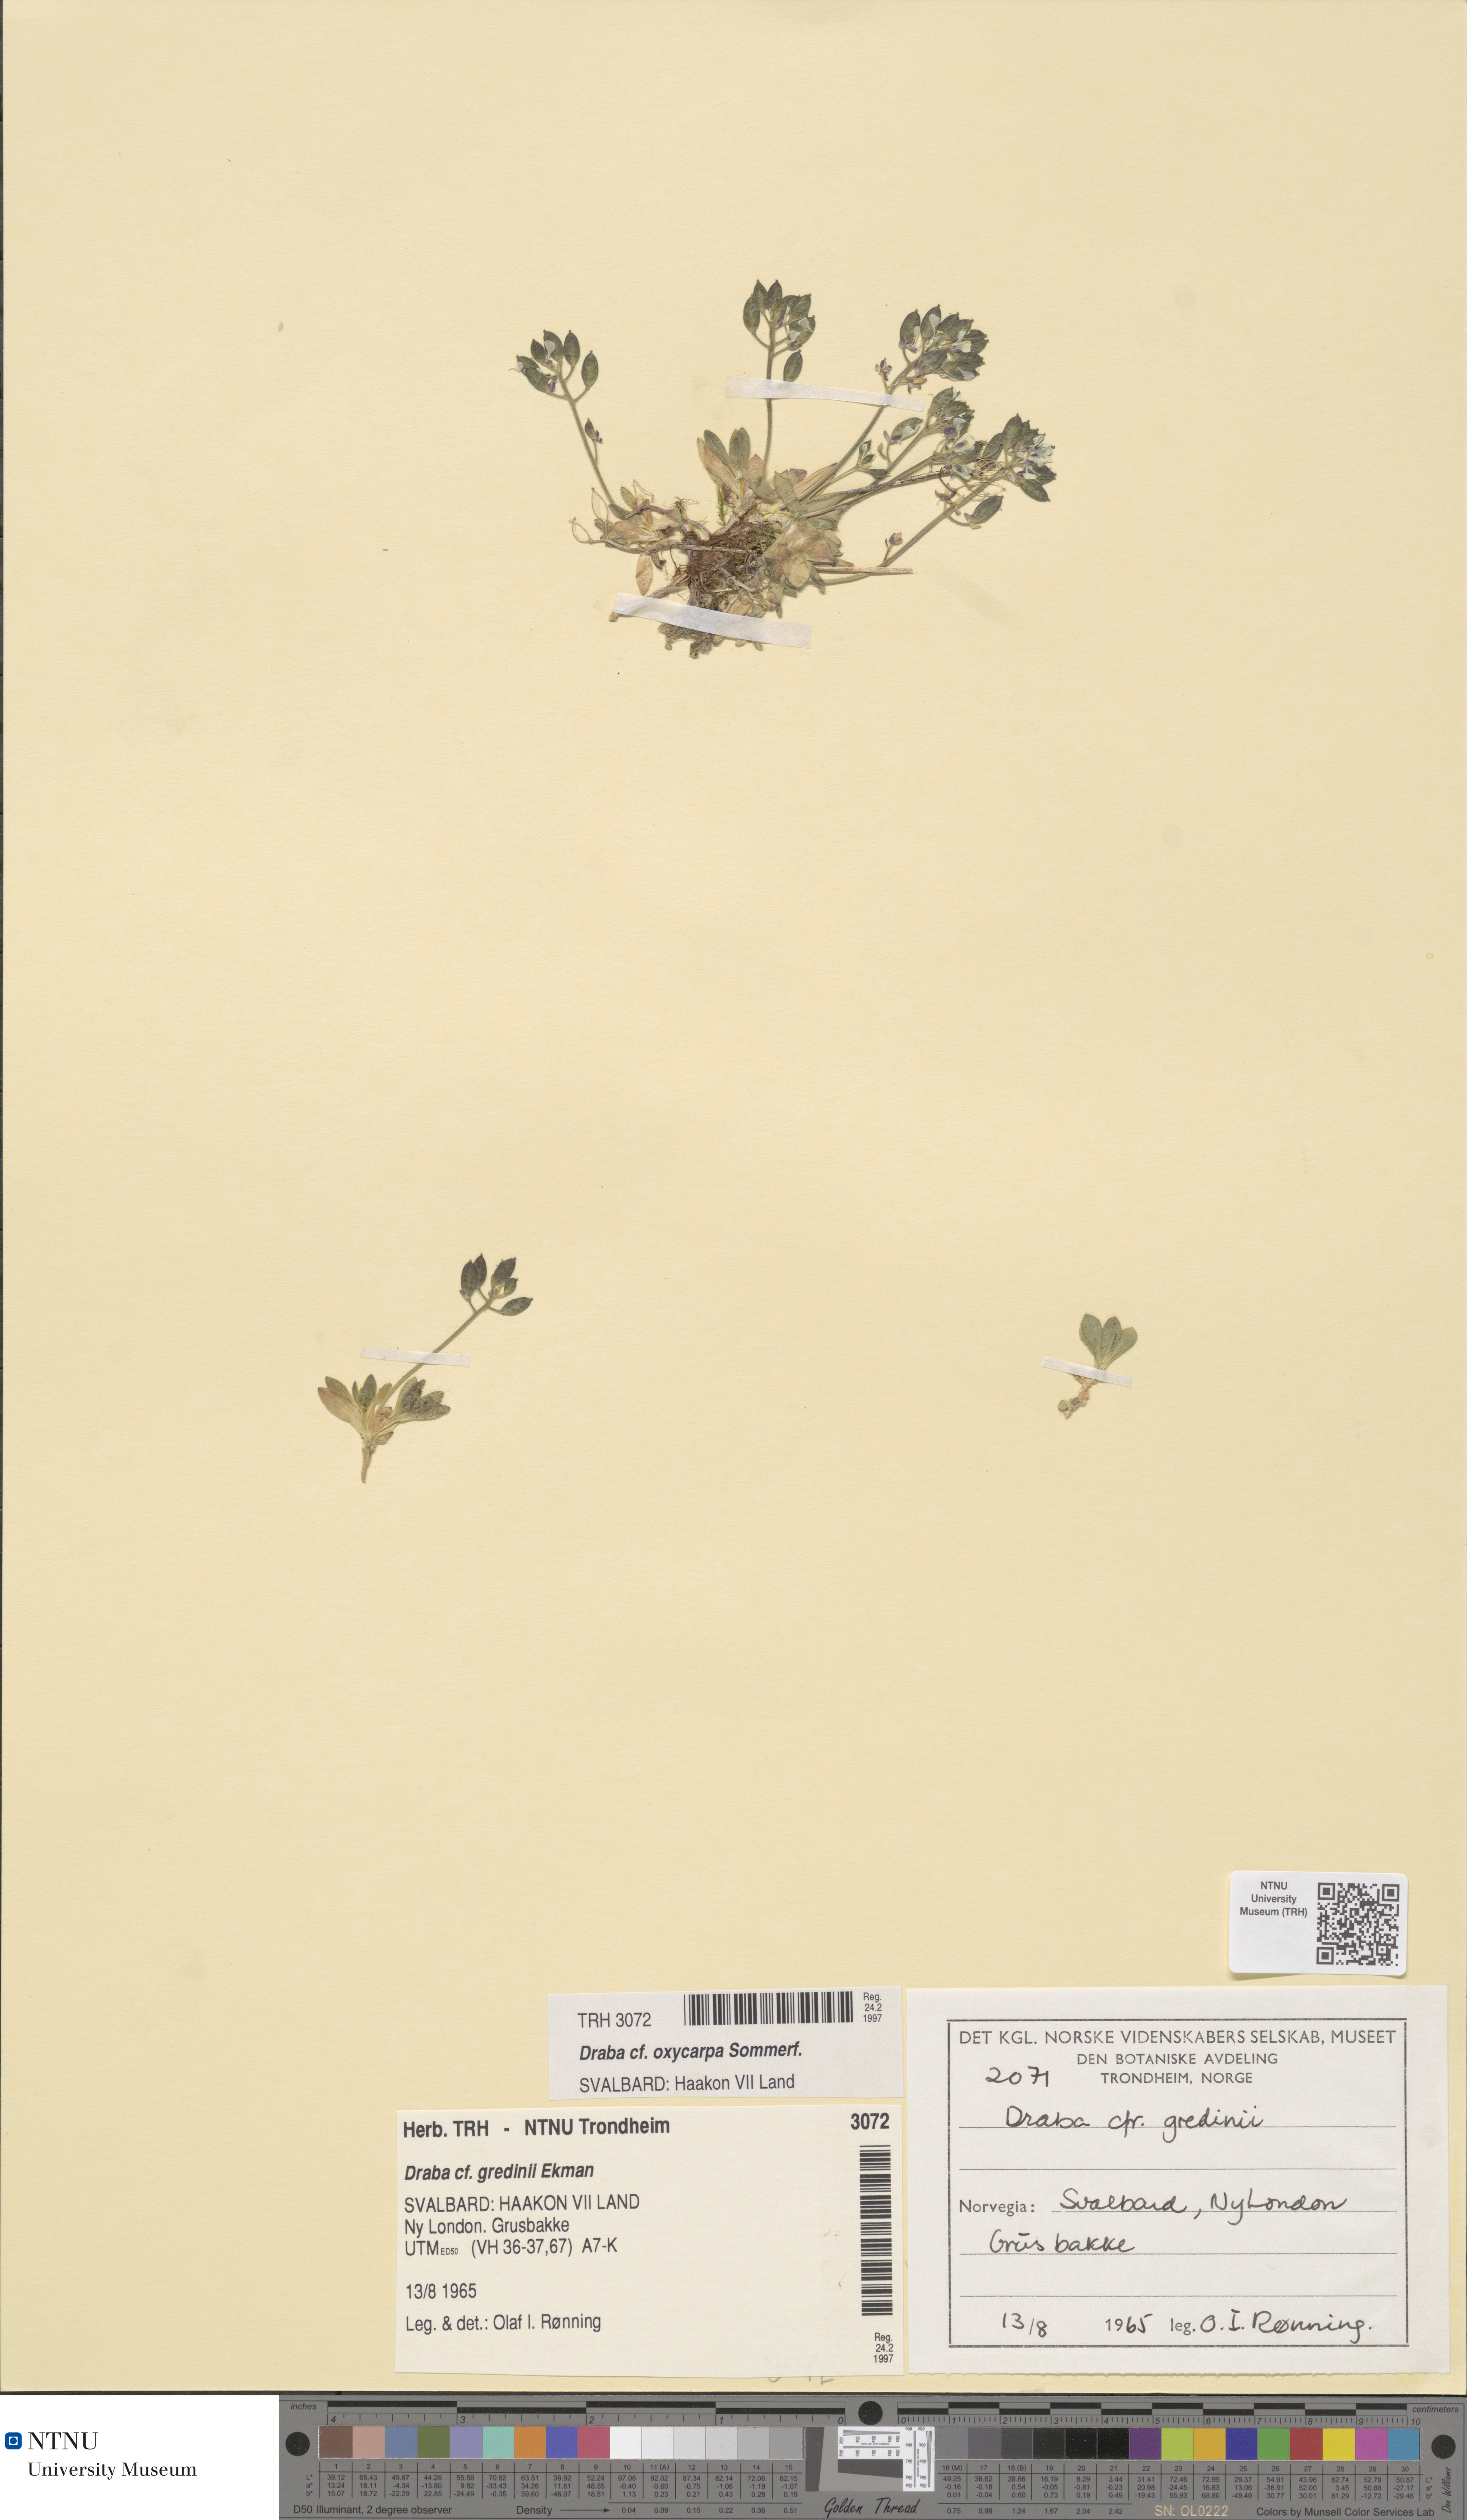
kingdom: Plantae
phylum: Tracheophyta
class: Magnoliopsida
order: Brassicales
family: Brassicaceae
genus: Draba
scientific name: Draba oxycarpa
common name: Sharp-fruited whitlow-grass
